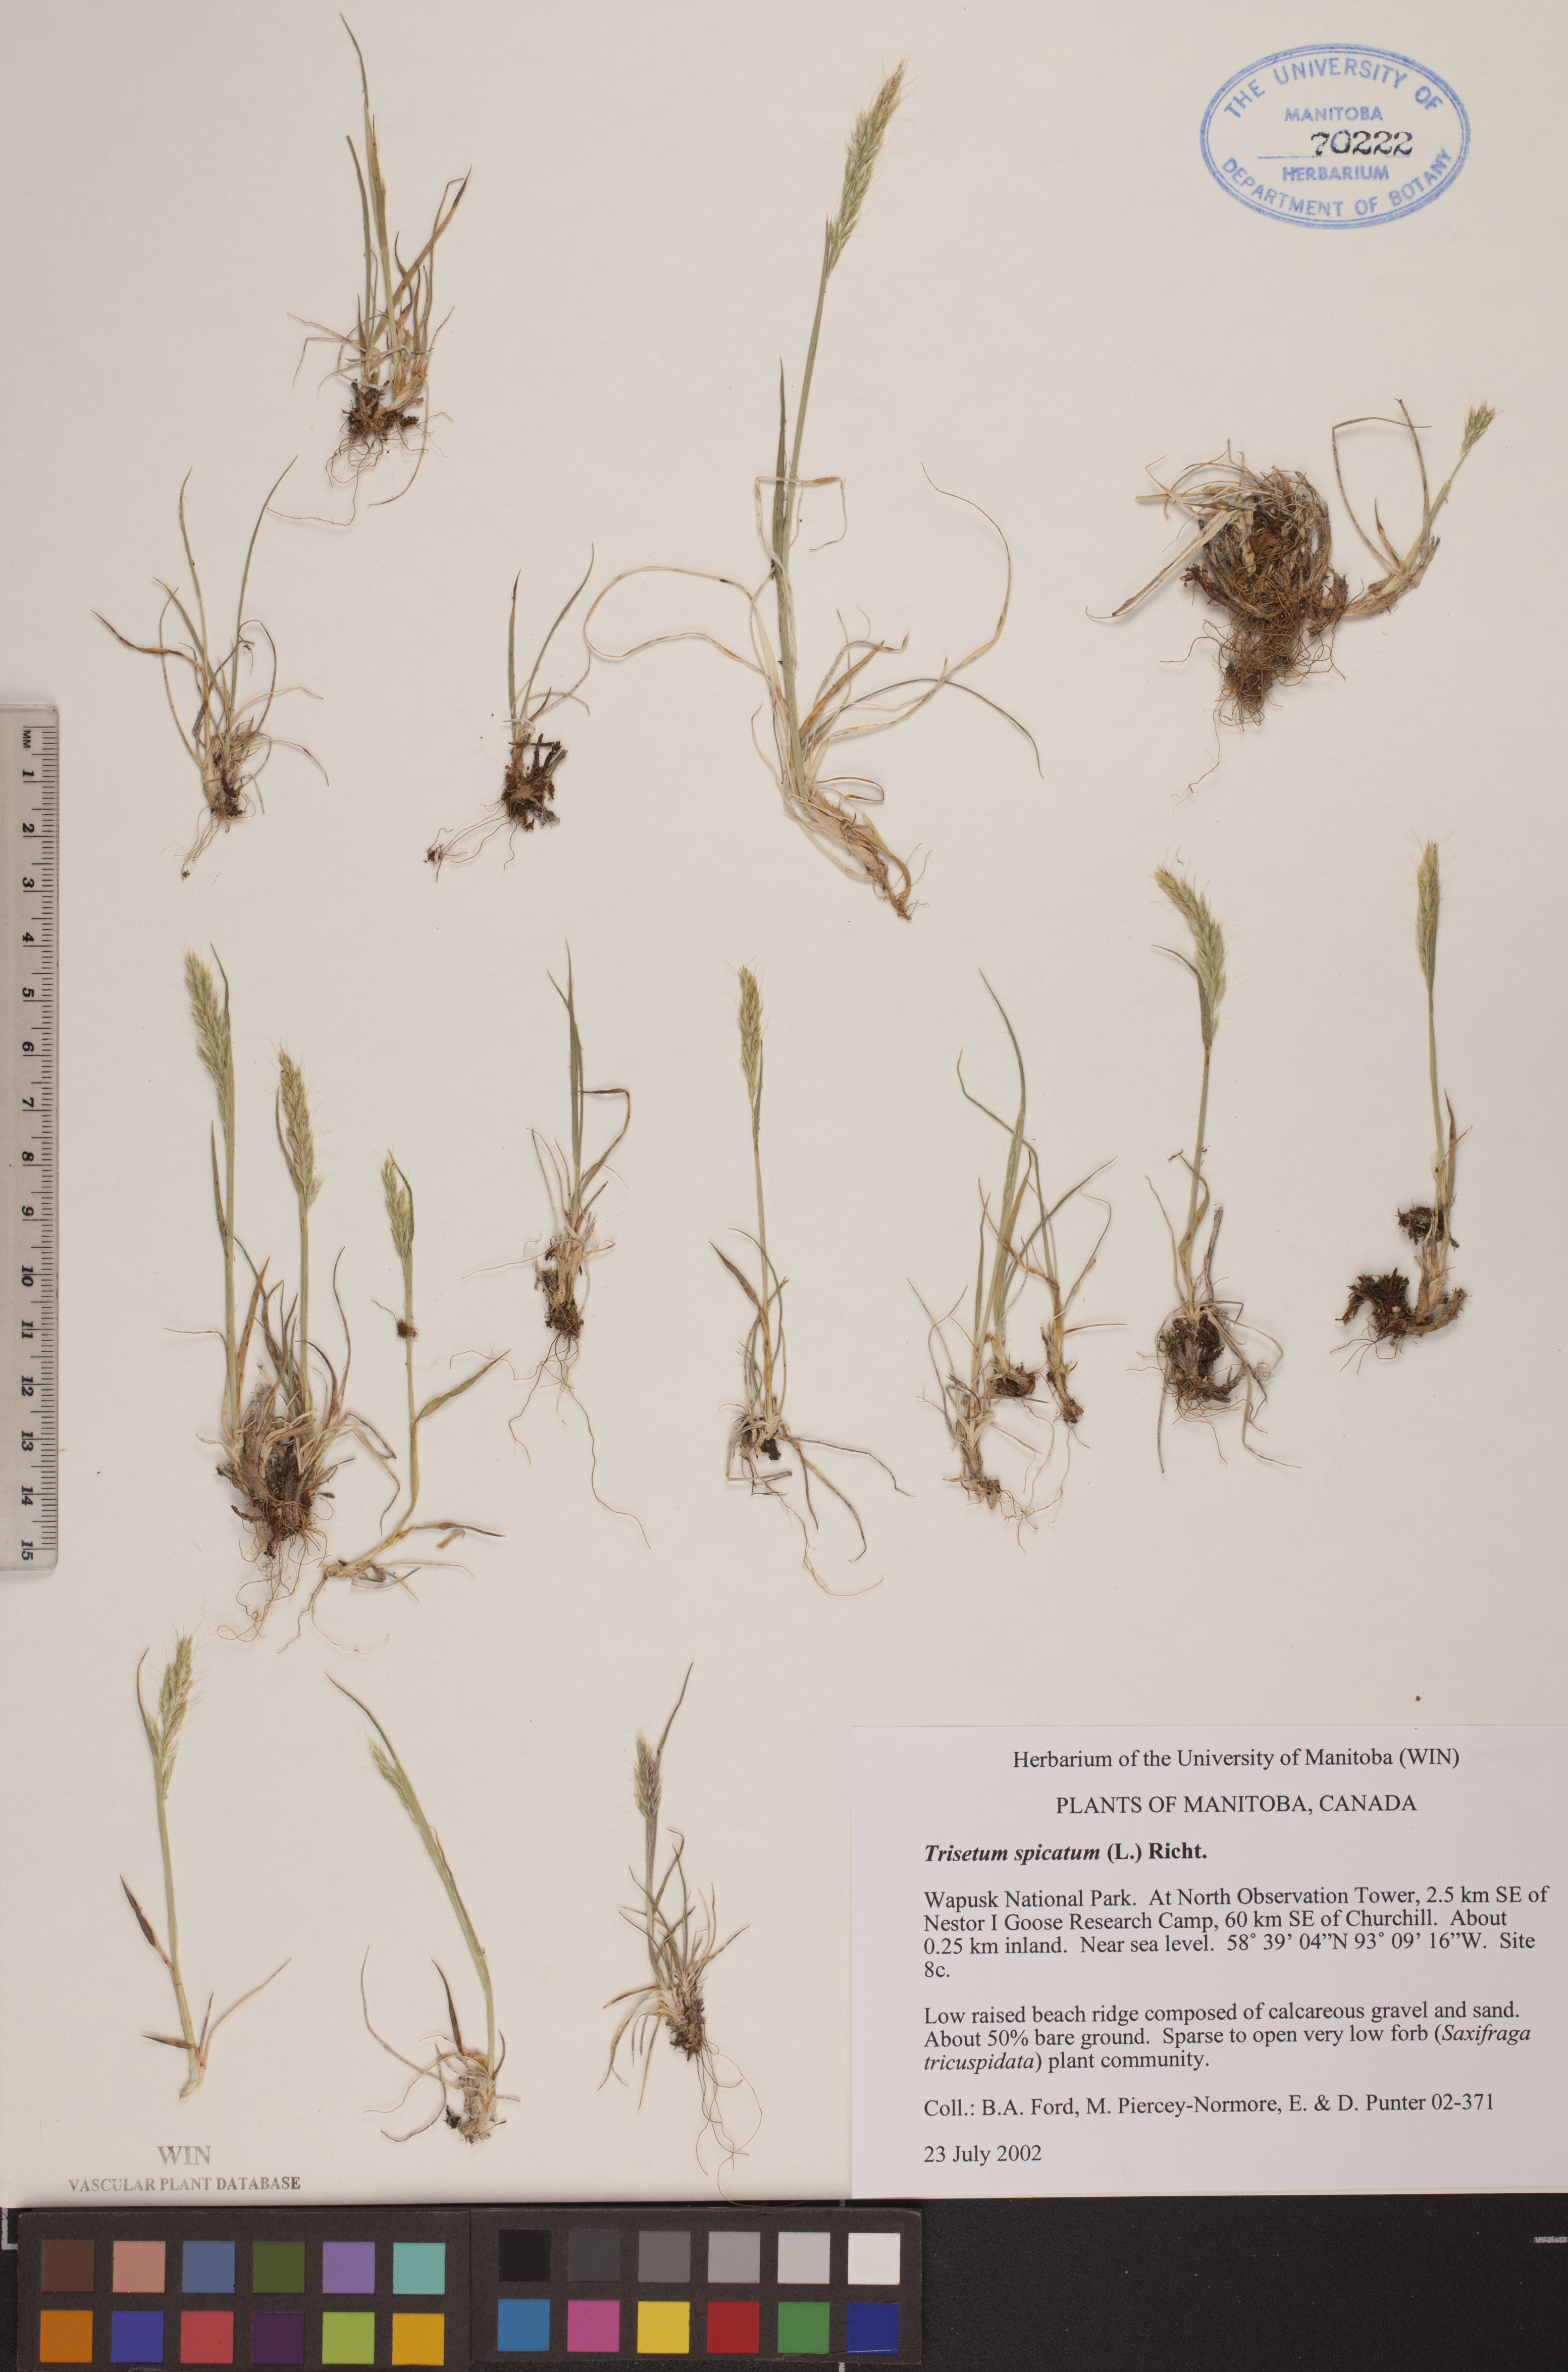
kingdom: Plantae
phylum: Tracheophyta
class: Liliopsida
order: Poales
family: Poaceae
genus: Koeleria
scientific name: Koeleria spicata
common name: Mountain trisetum
